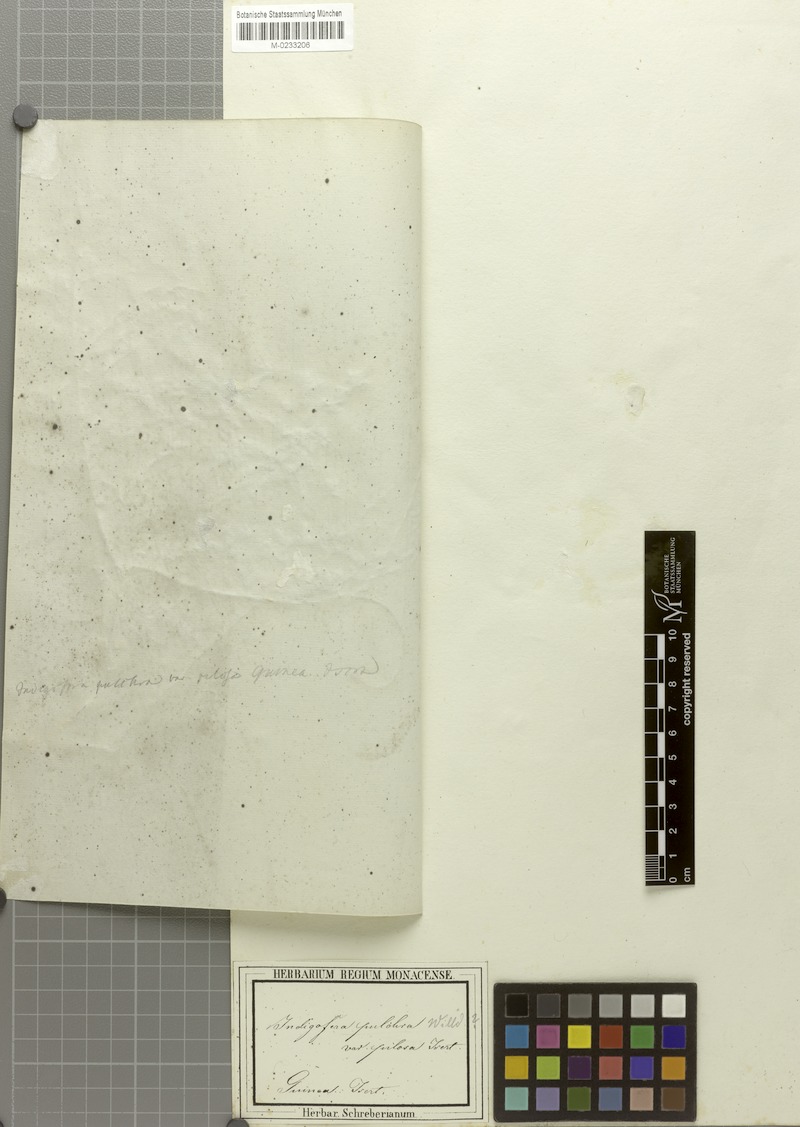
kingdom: Plantae
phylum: Tracheophyta
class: Magnoliopsida
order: Fabales
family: Fabaceae
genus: Indigofera
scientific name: Indigofera pulchra
